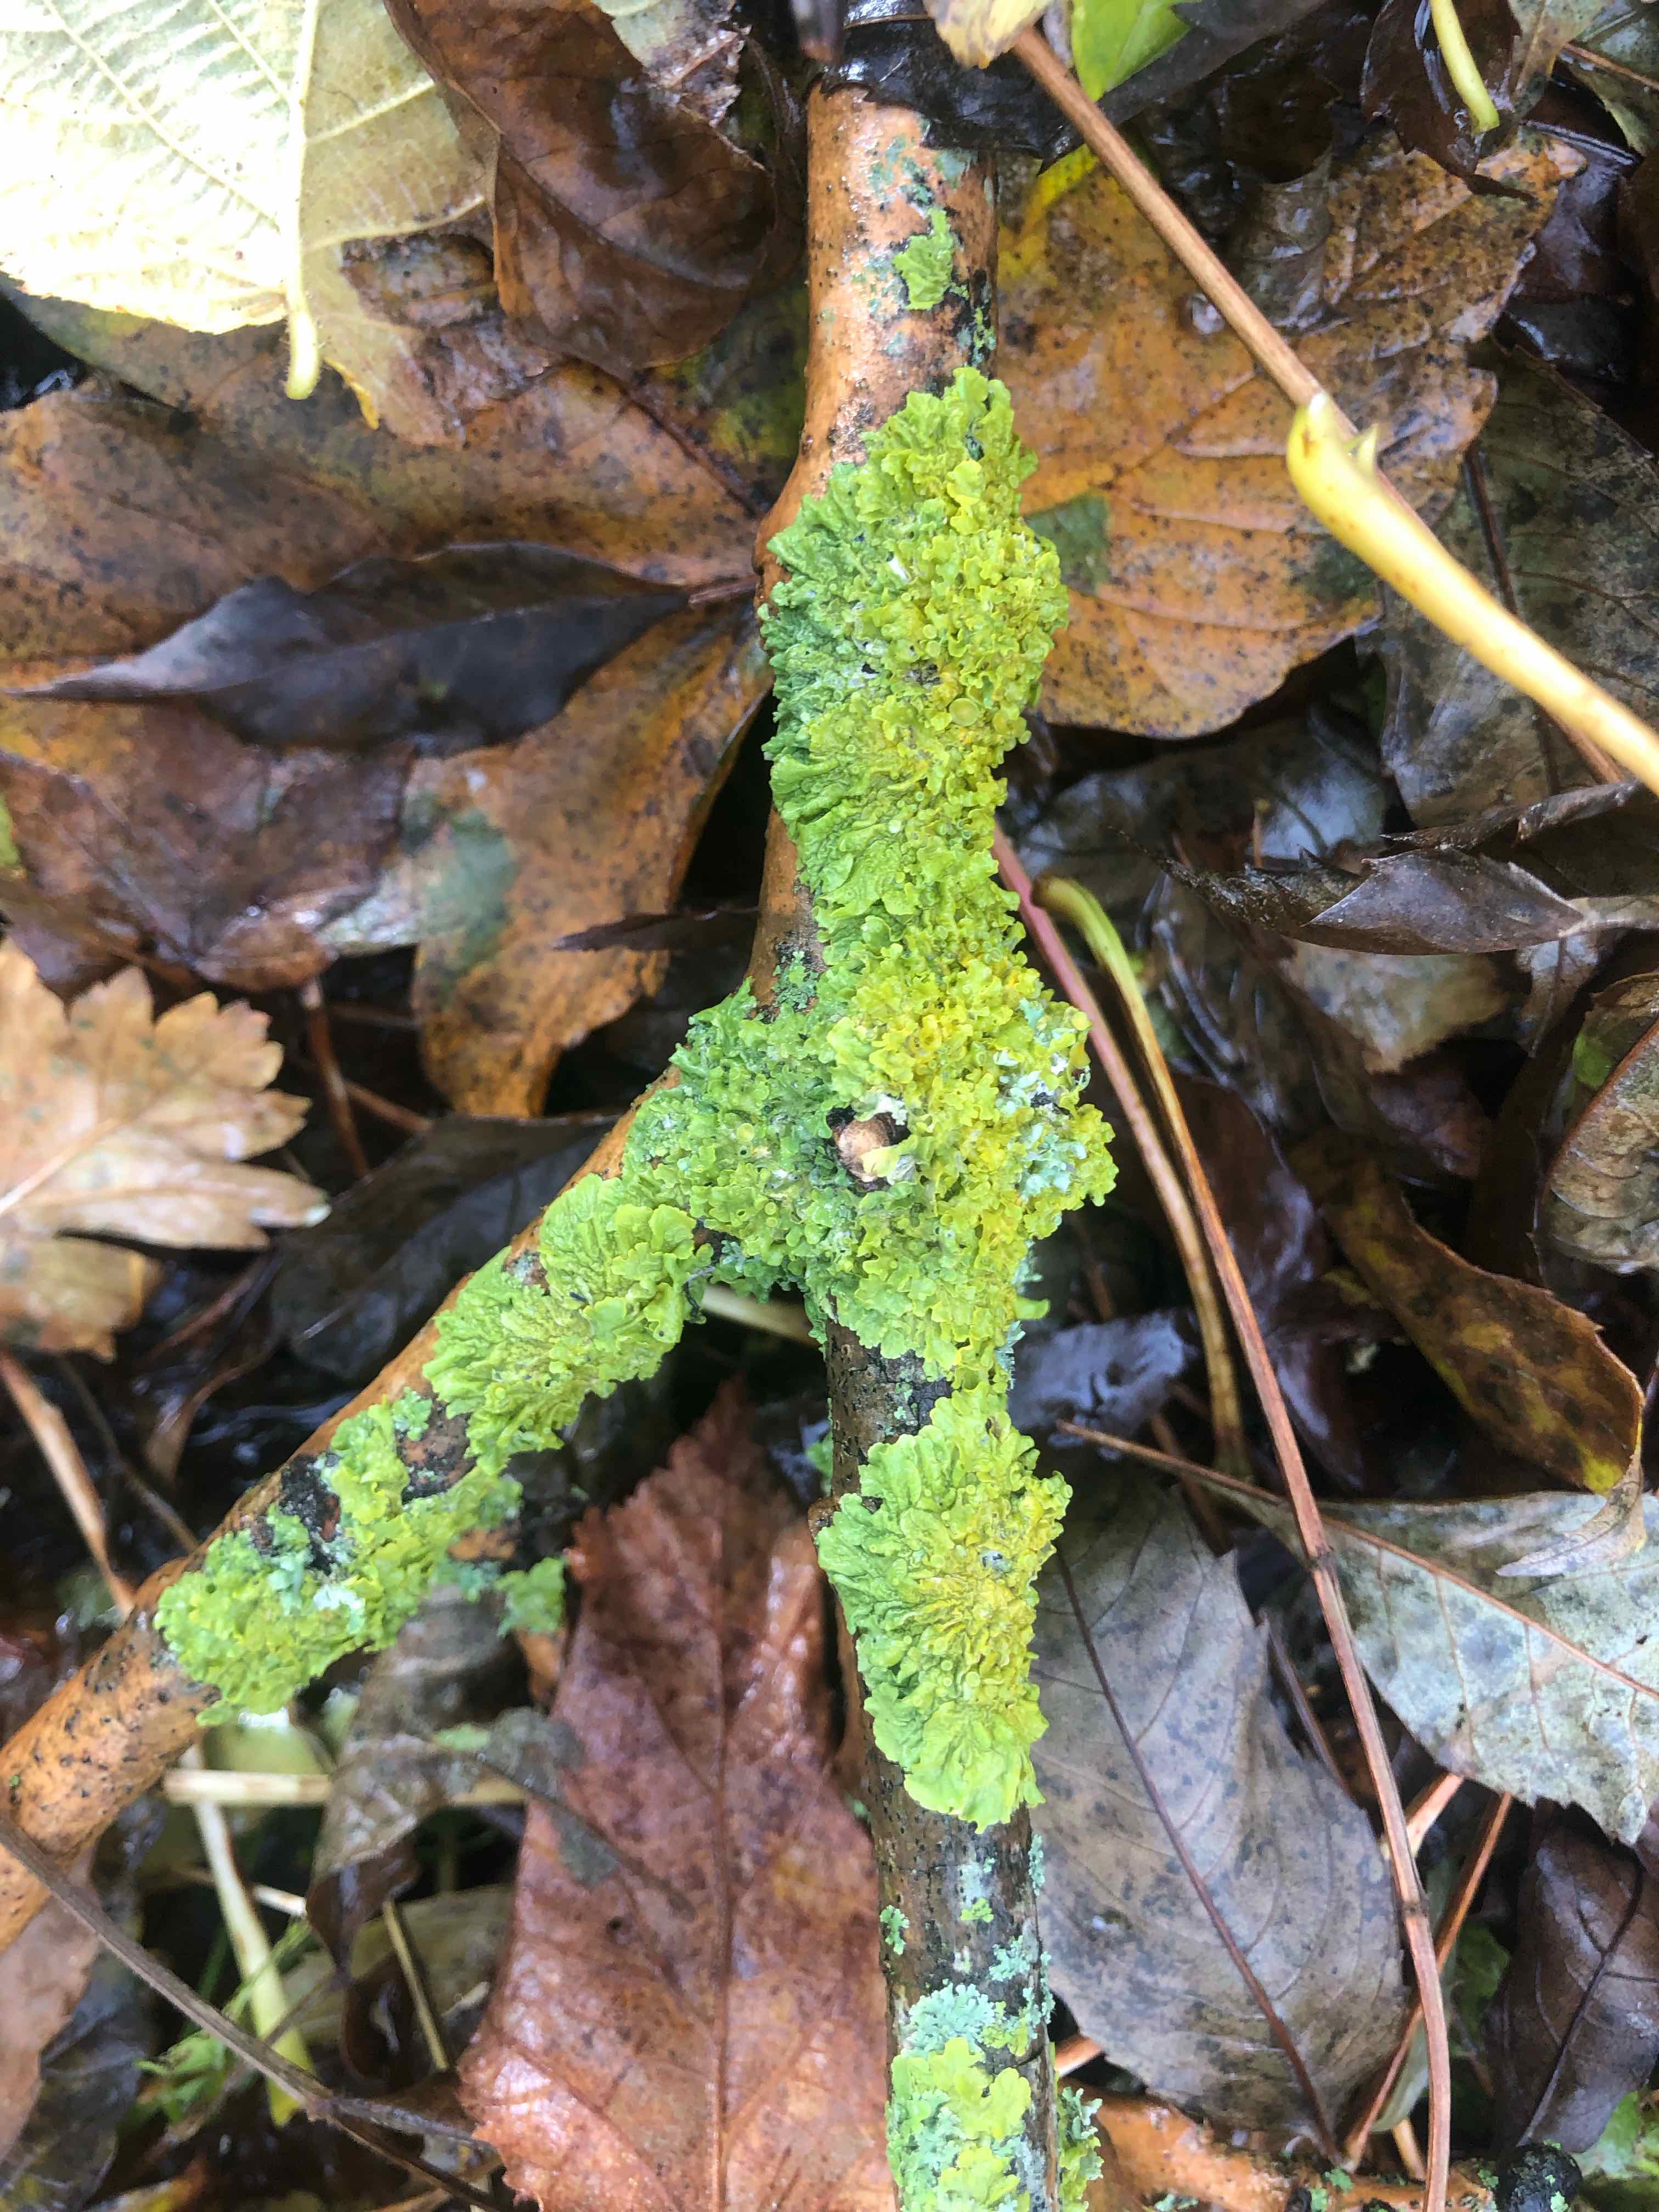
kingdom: Fungi
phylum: Ascomycota
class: Lecanoromycetes
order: Teloschistales
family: Teloschistaceae
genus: Xanthoria
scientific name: Xanthoria parietina
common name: almindelig væggelav
